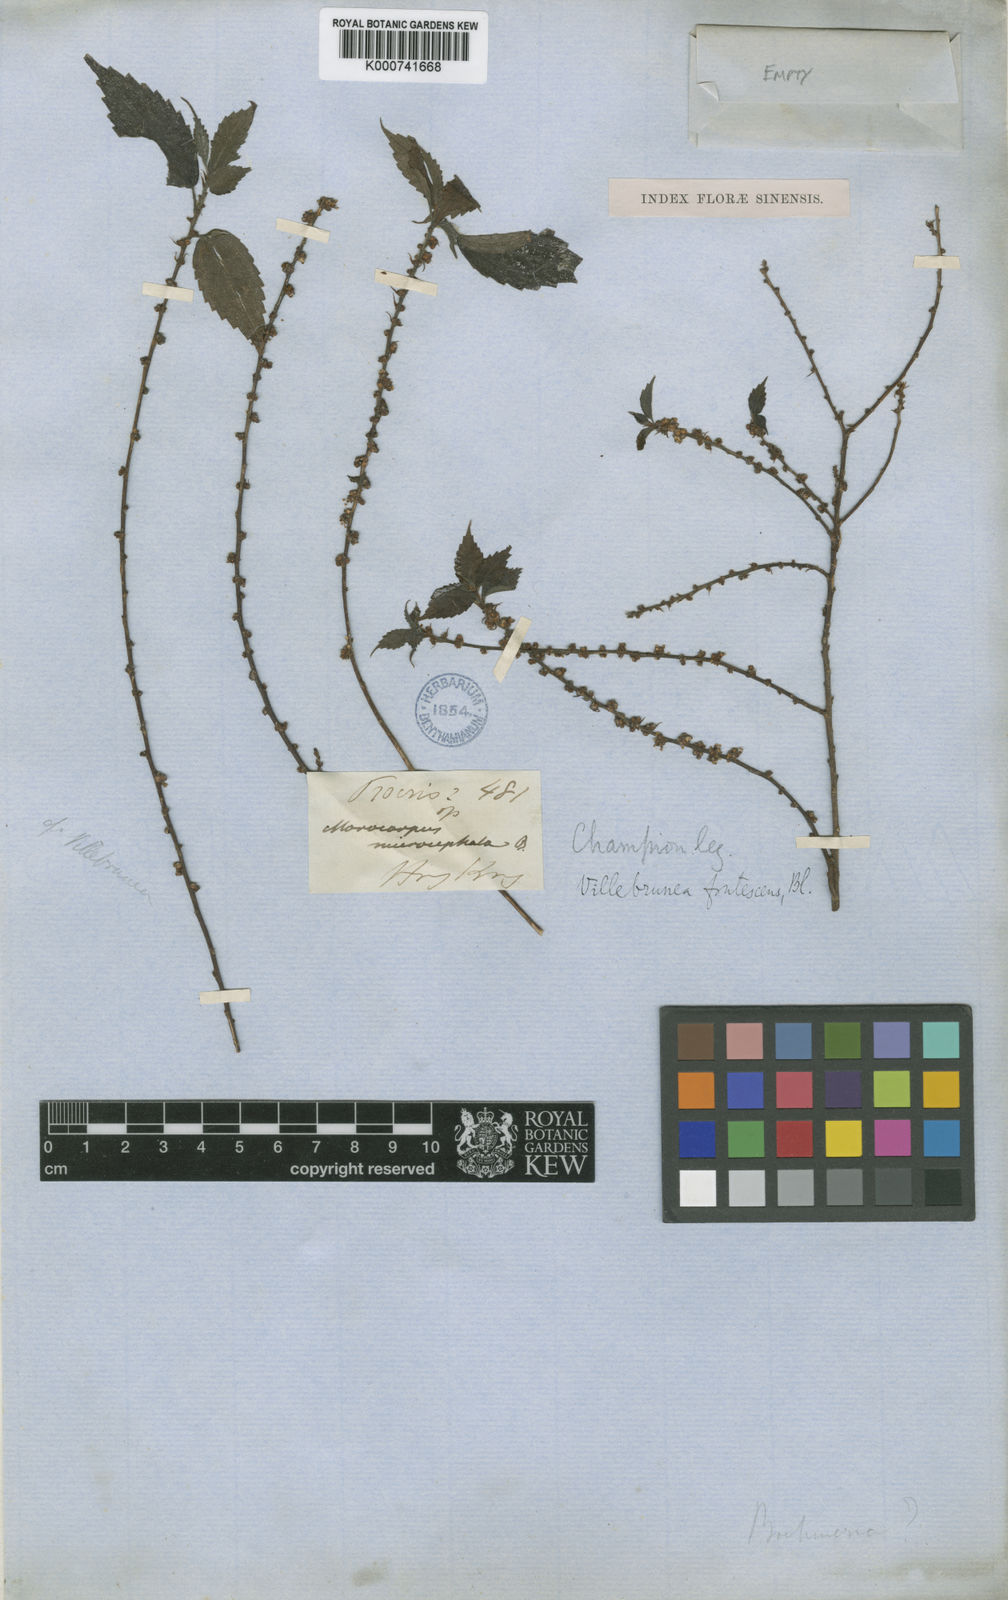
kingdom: Plantae
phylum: Tracheophyta
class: Magnoliopsida
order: Rosales
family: Urticaceae
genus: Oreocnide
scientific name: Oreocnide frutescens
